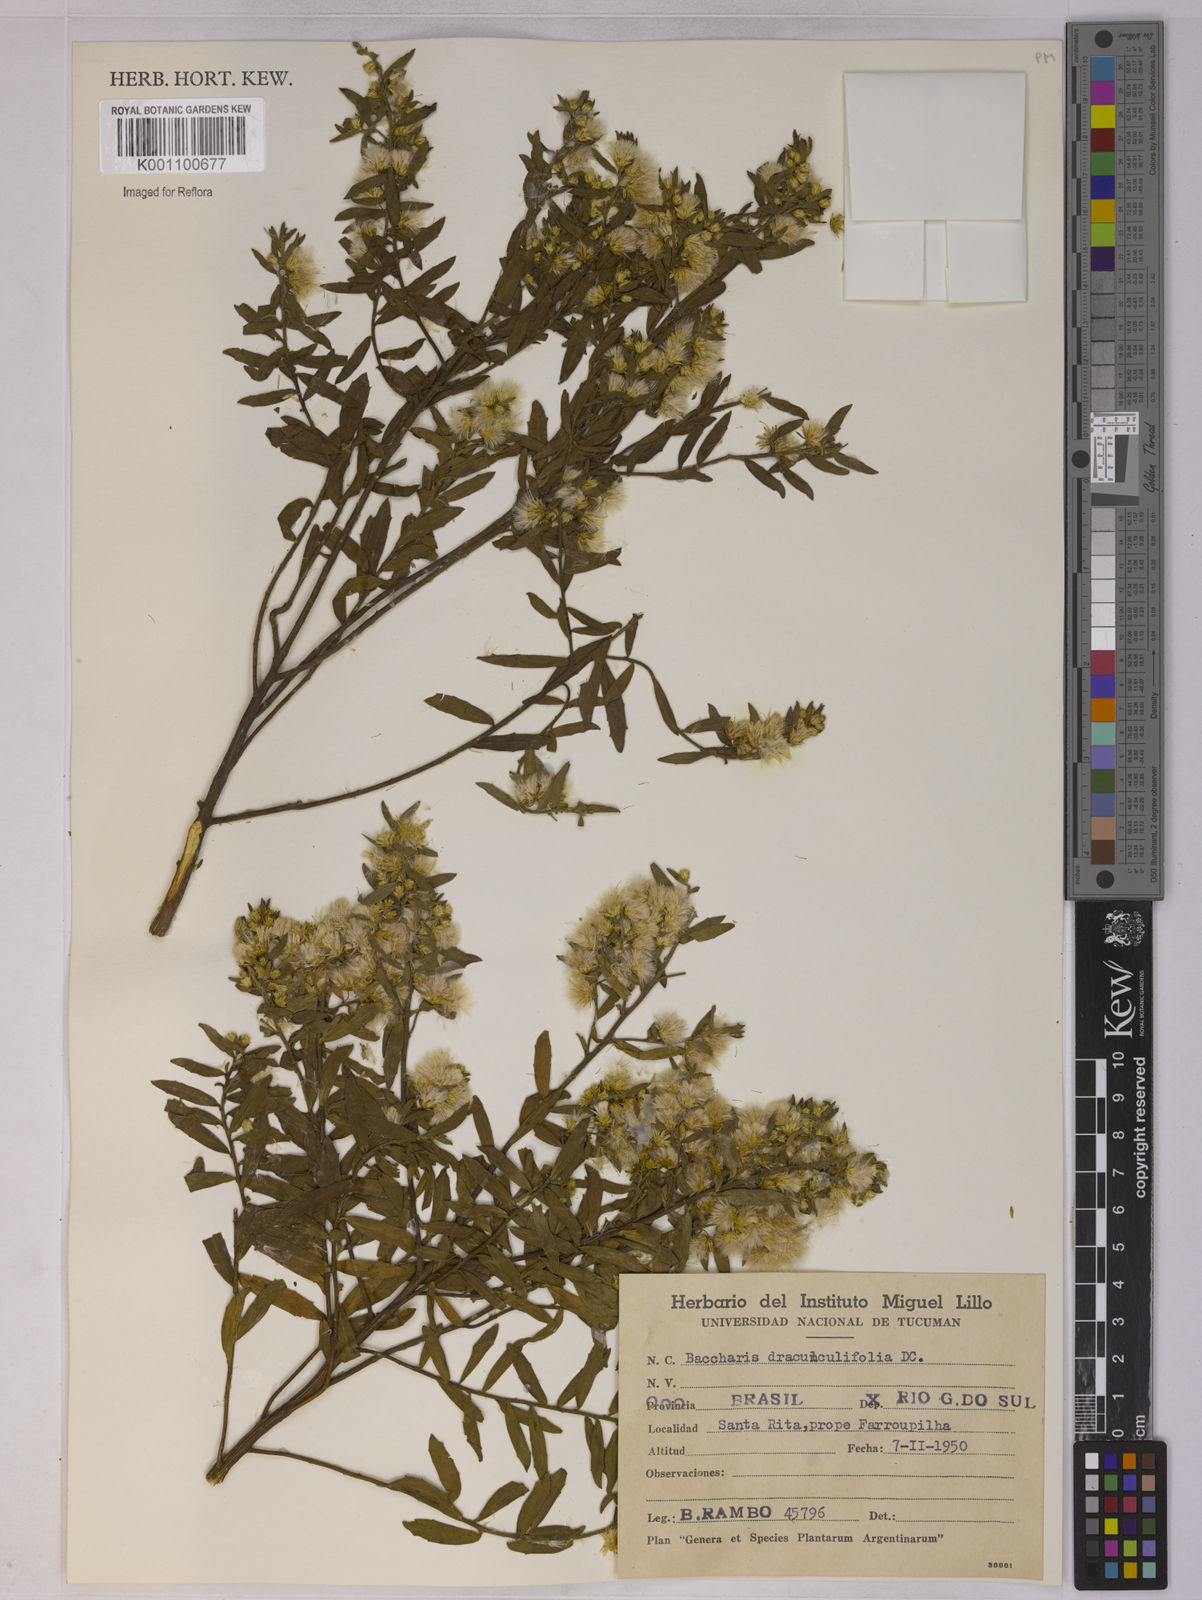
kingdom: Plantae
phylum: Tracheophyta
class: Magnoliopsida
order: Asterales
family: Asteraceae
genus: Baccharis
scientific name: Baccharis dracunculifolia
